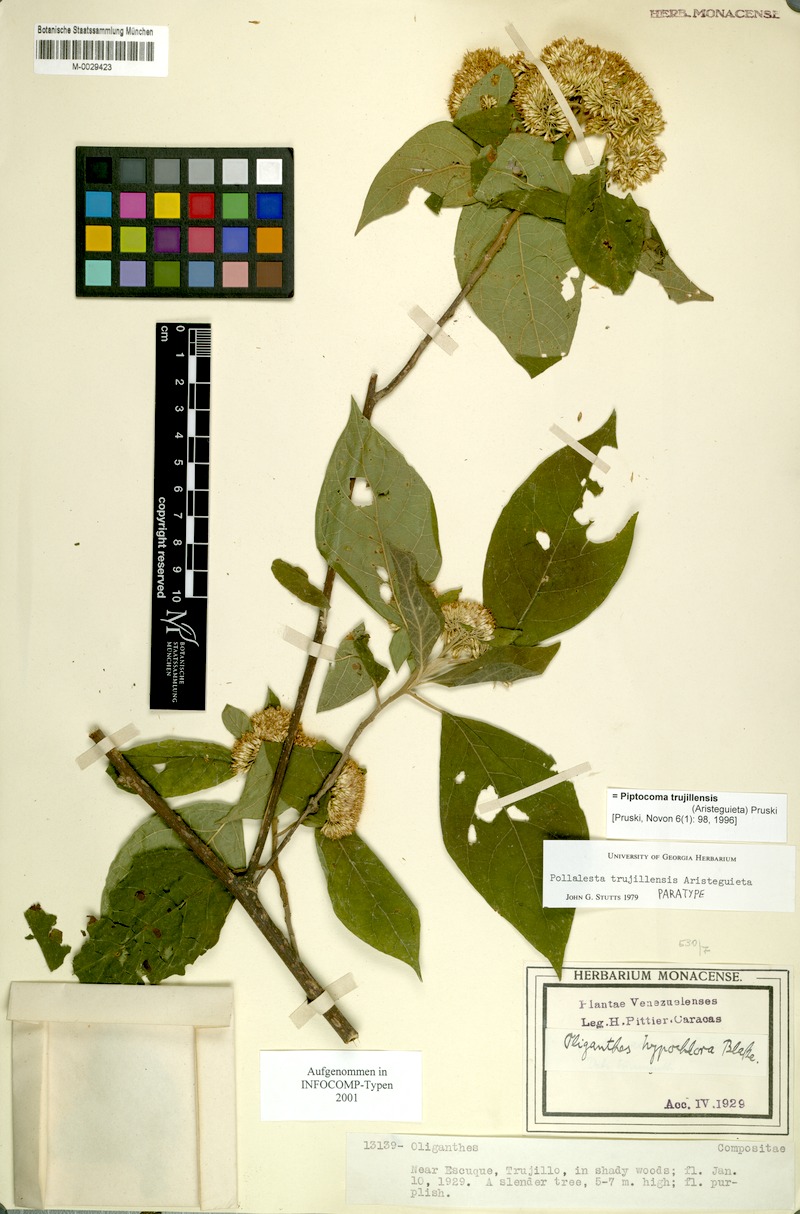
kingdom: Plantae
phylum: Tracheophyta
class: Magnoliopsida
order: Asterales
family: Asteraceae
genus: Piptocoma
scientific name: Piptocoma trujillensis
